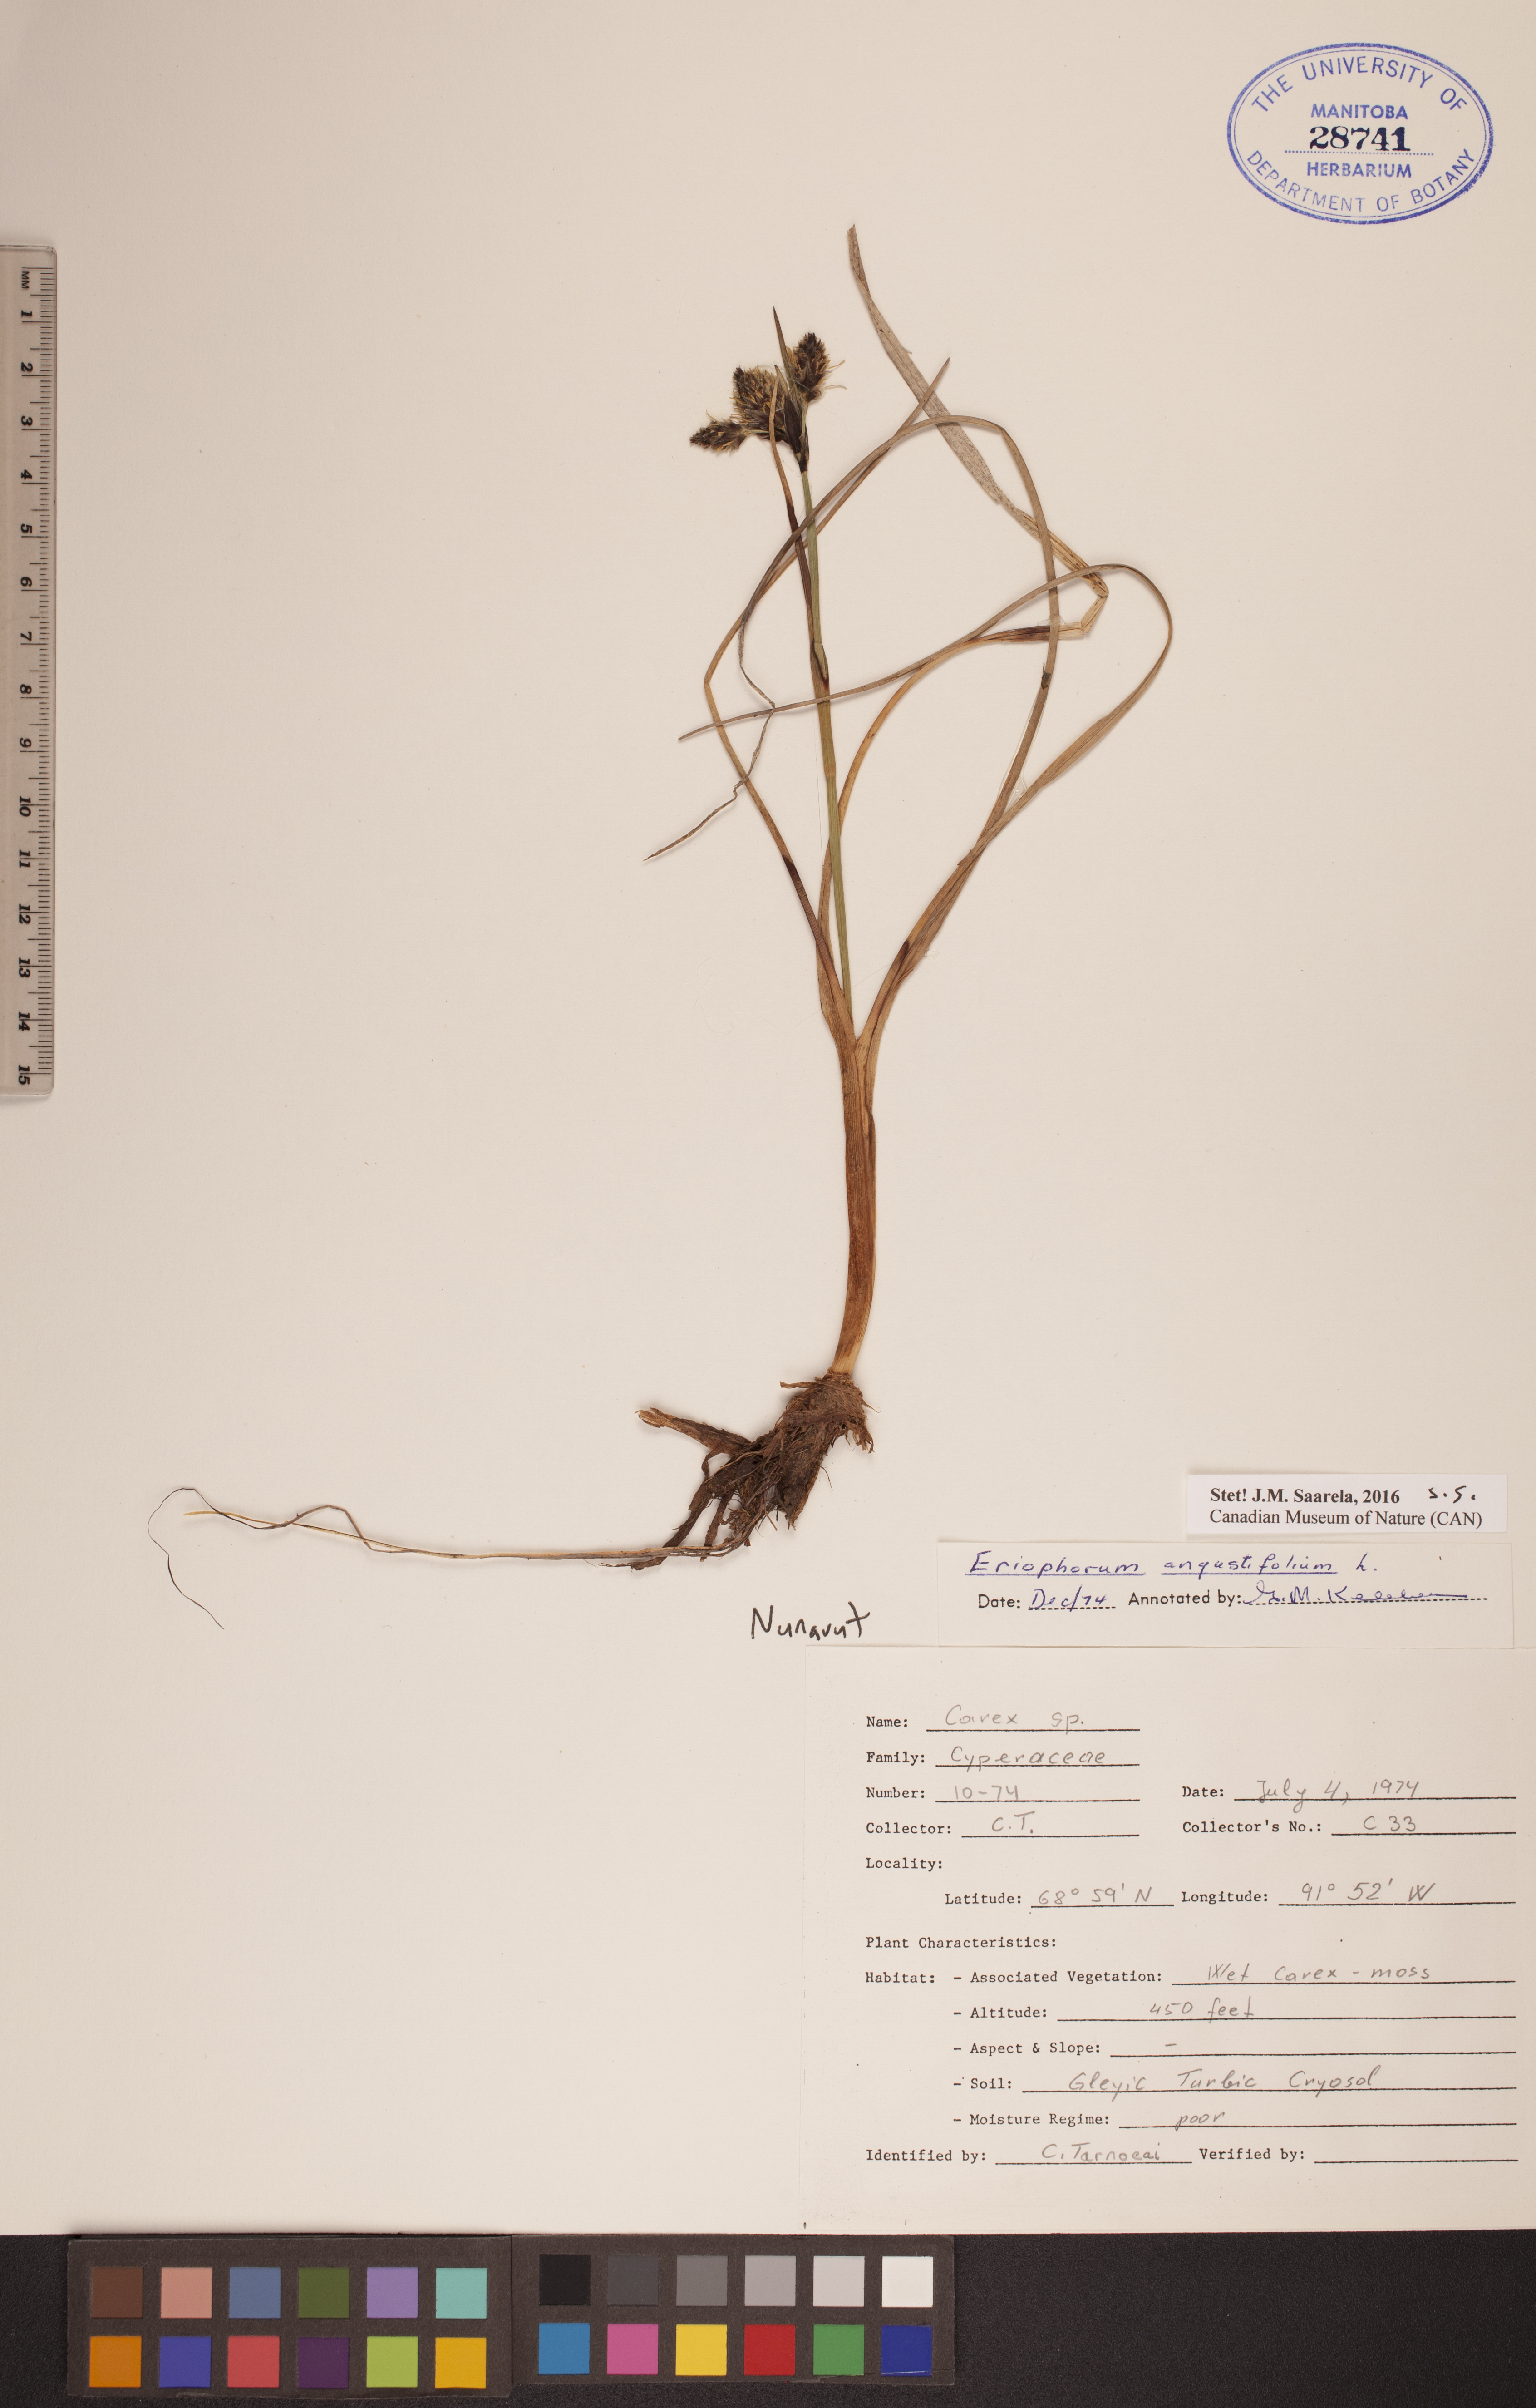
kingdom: Plantae
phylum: Tracheophyta
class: Liliopsida
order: Poales
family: Cyperaceae
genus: Eriophorum
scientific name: Eriophorum angustifolium
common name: Common cottongrass
